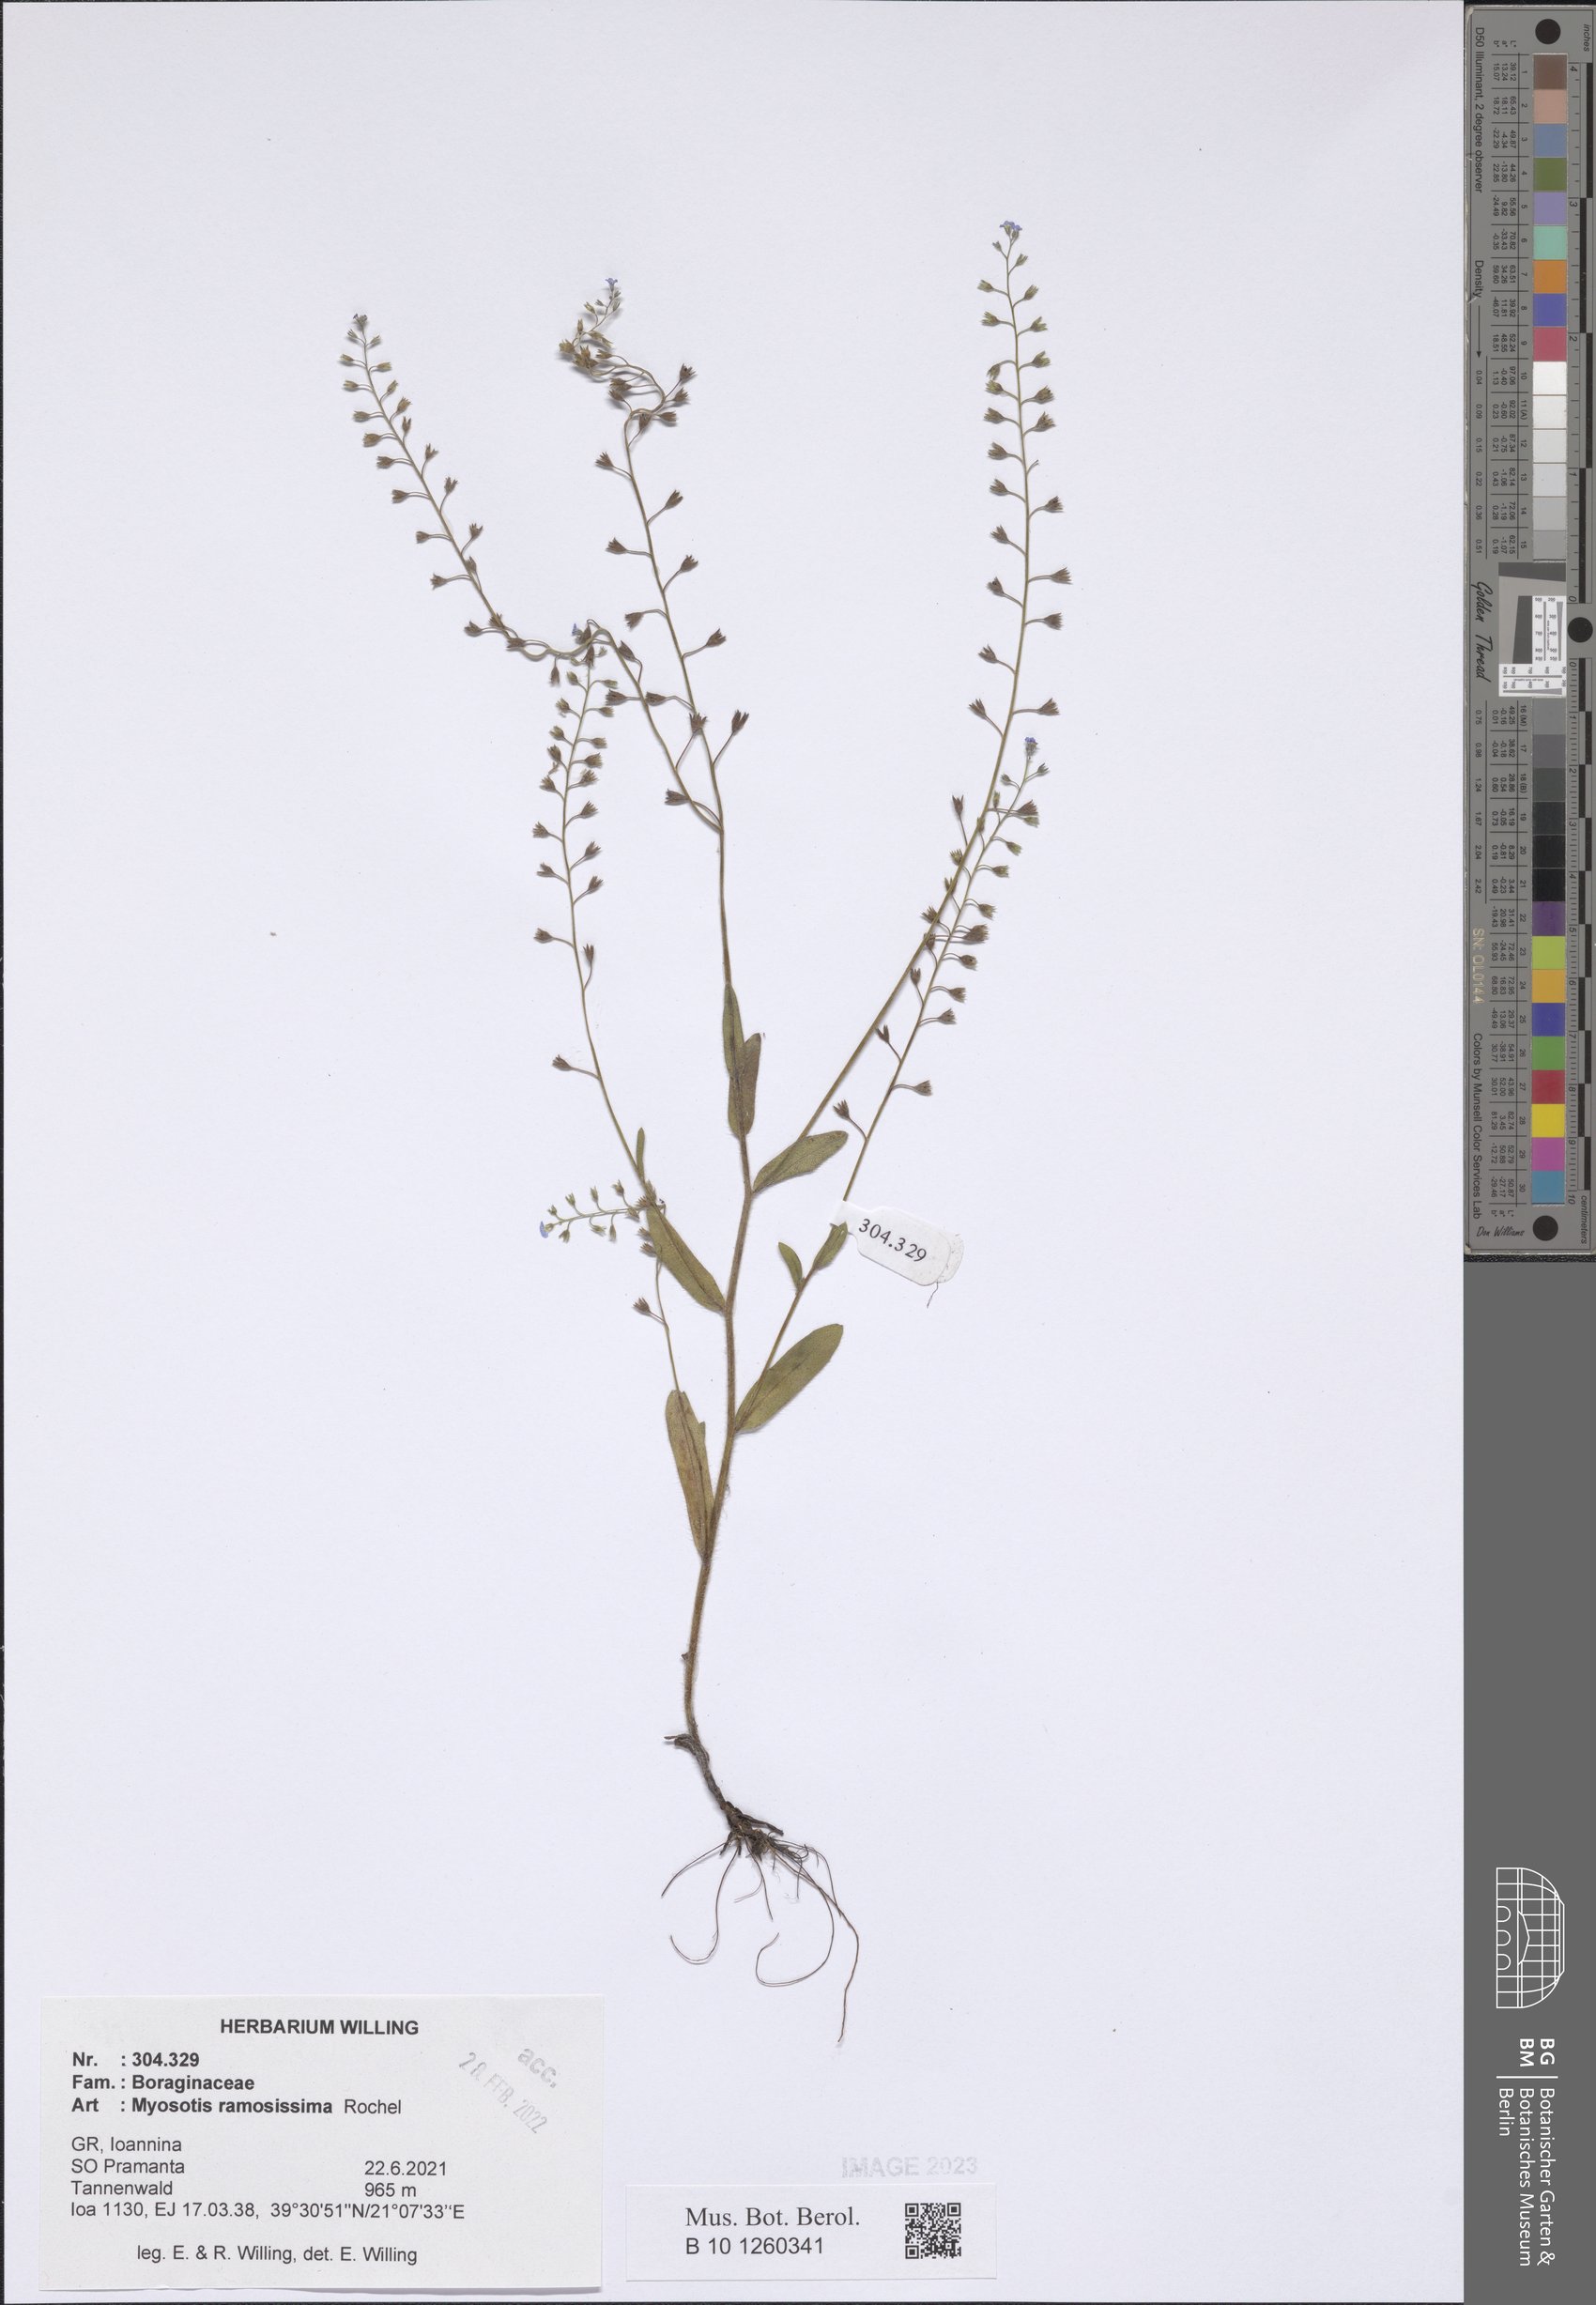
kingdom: Plantae
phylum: Tracheophyta
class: Magnoliopsida
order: Boraginales
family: Boraginaceae
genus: Myosotis
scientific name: Myosotis ramosissima
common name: Early forget-me-not
